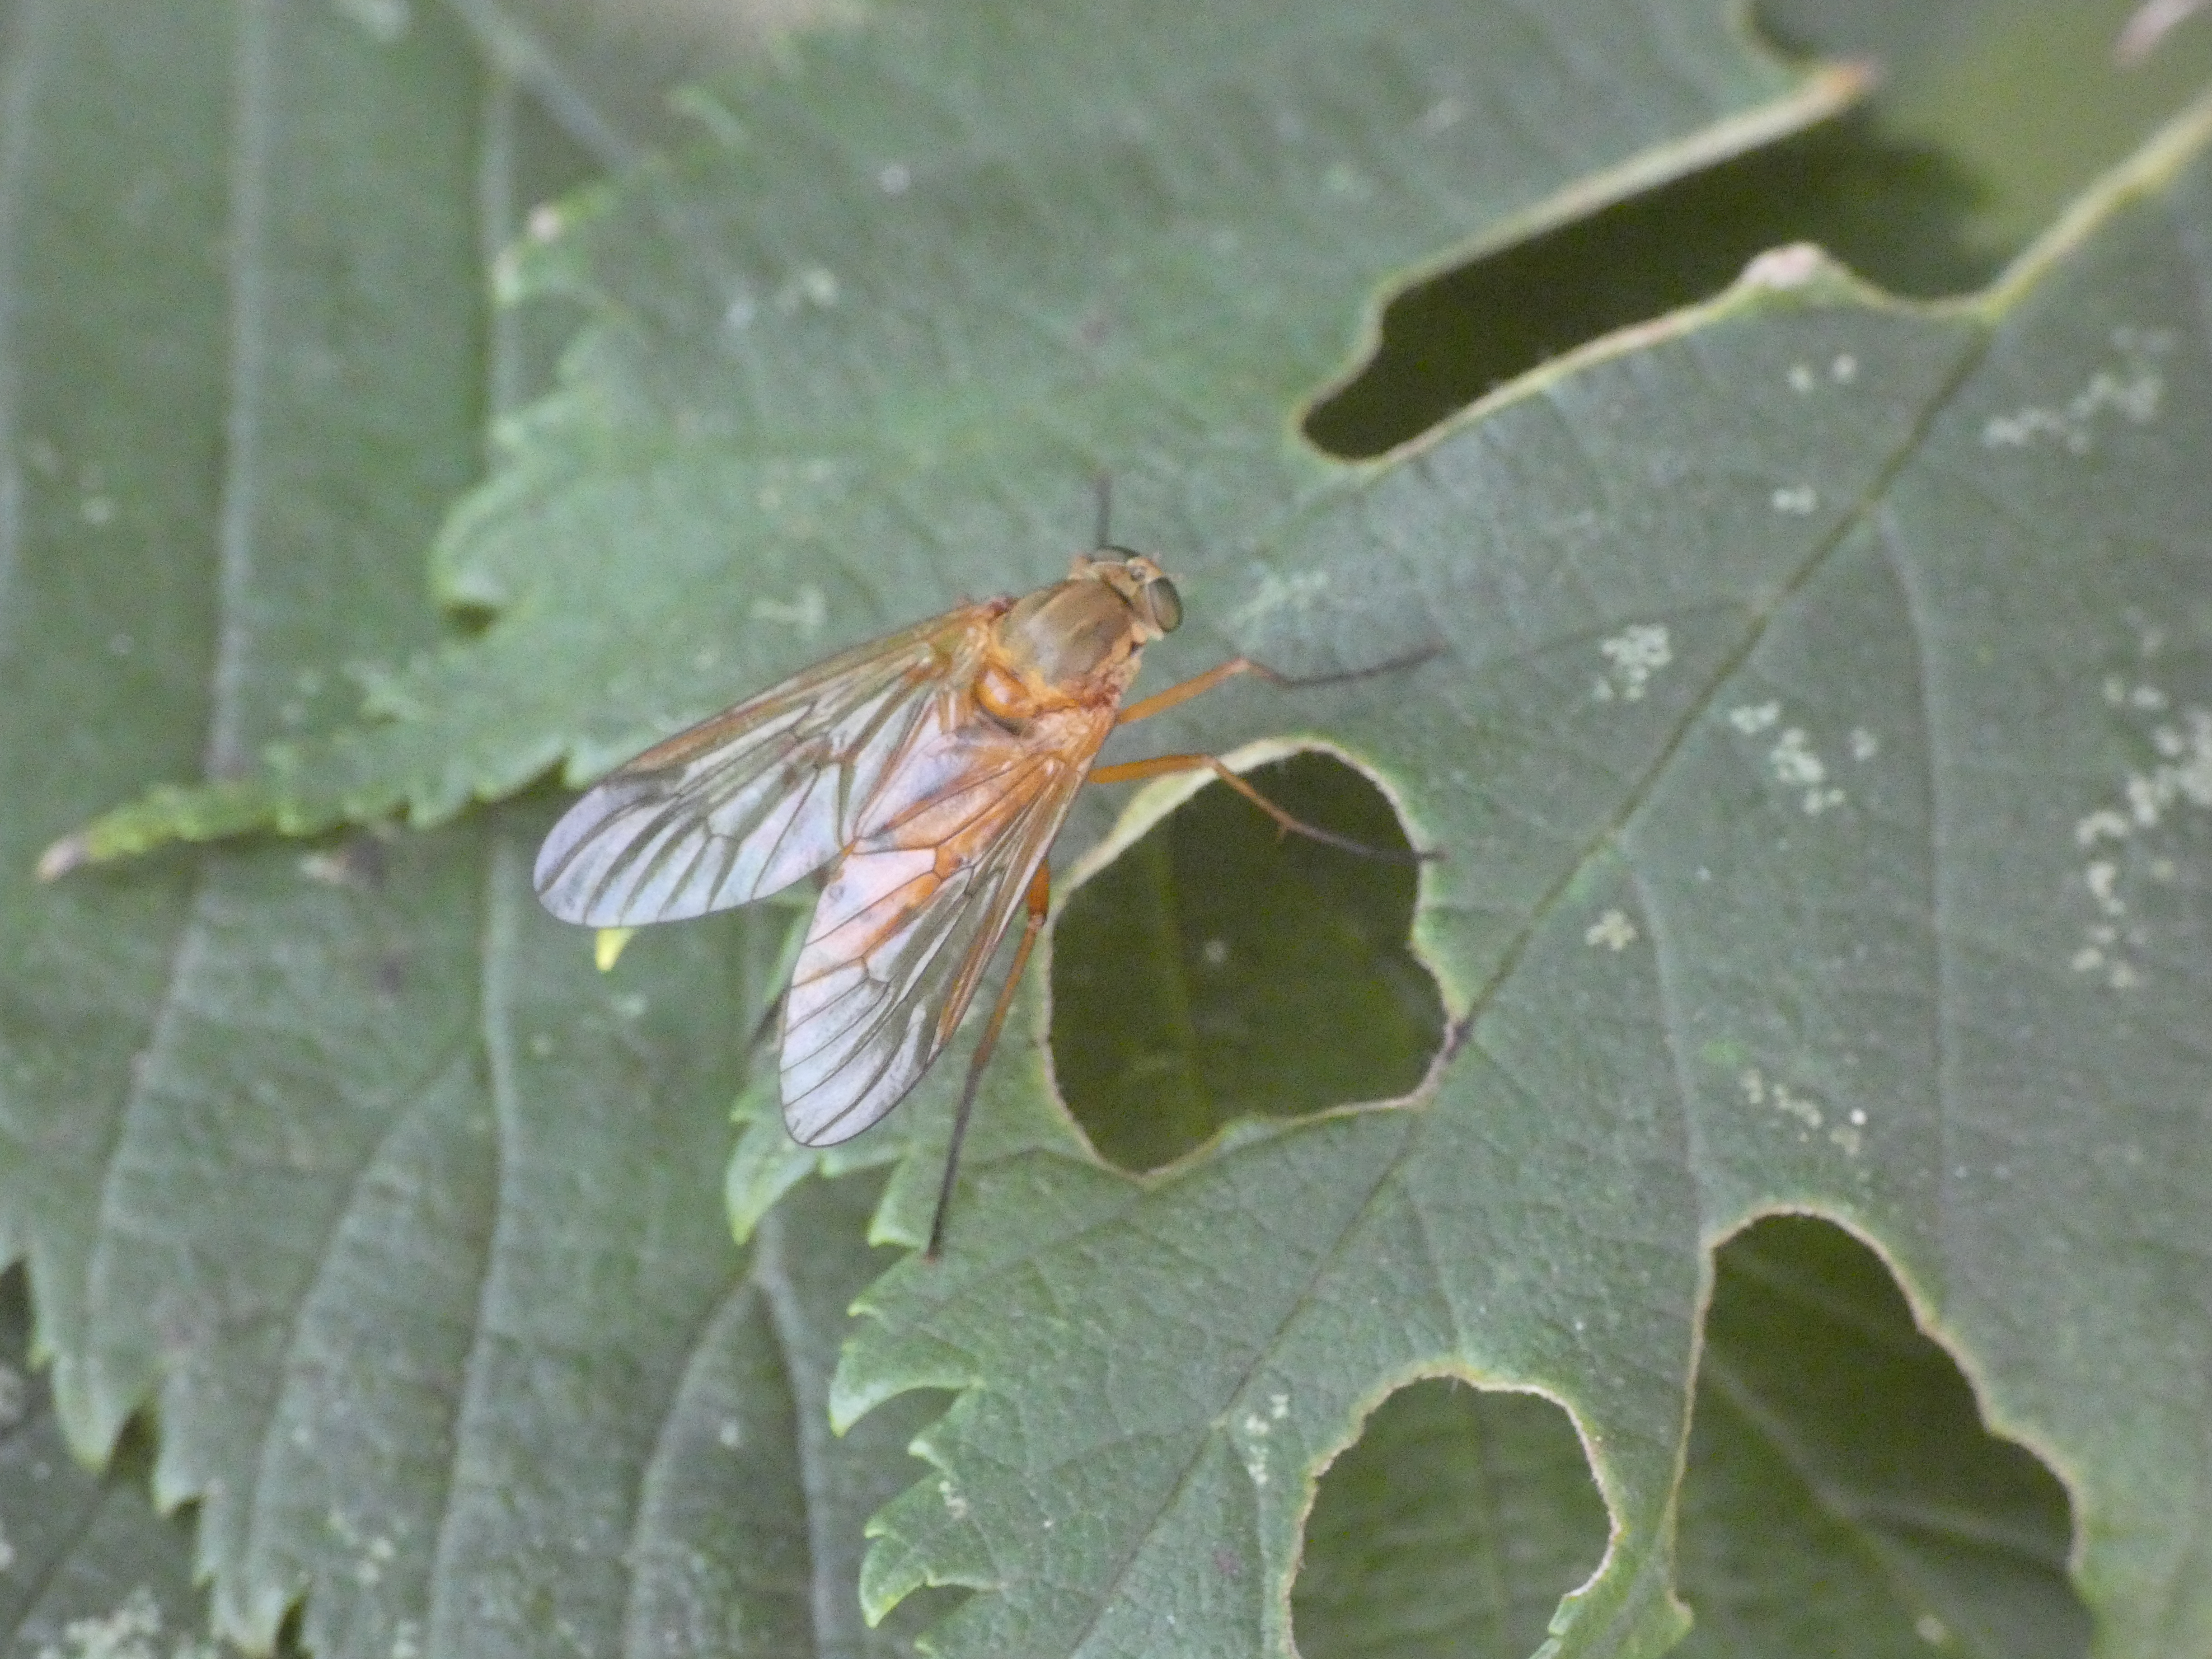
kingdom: Animalia
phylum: Arthropoda
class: Insecta
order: Diptera
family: Rhagionidae
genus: Rhagio
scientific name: Rhagio tringaria
